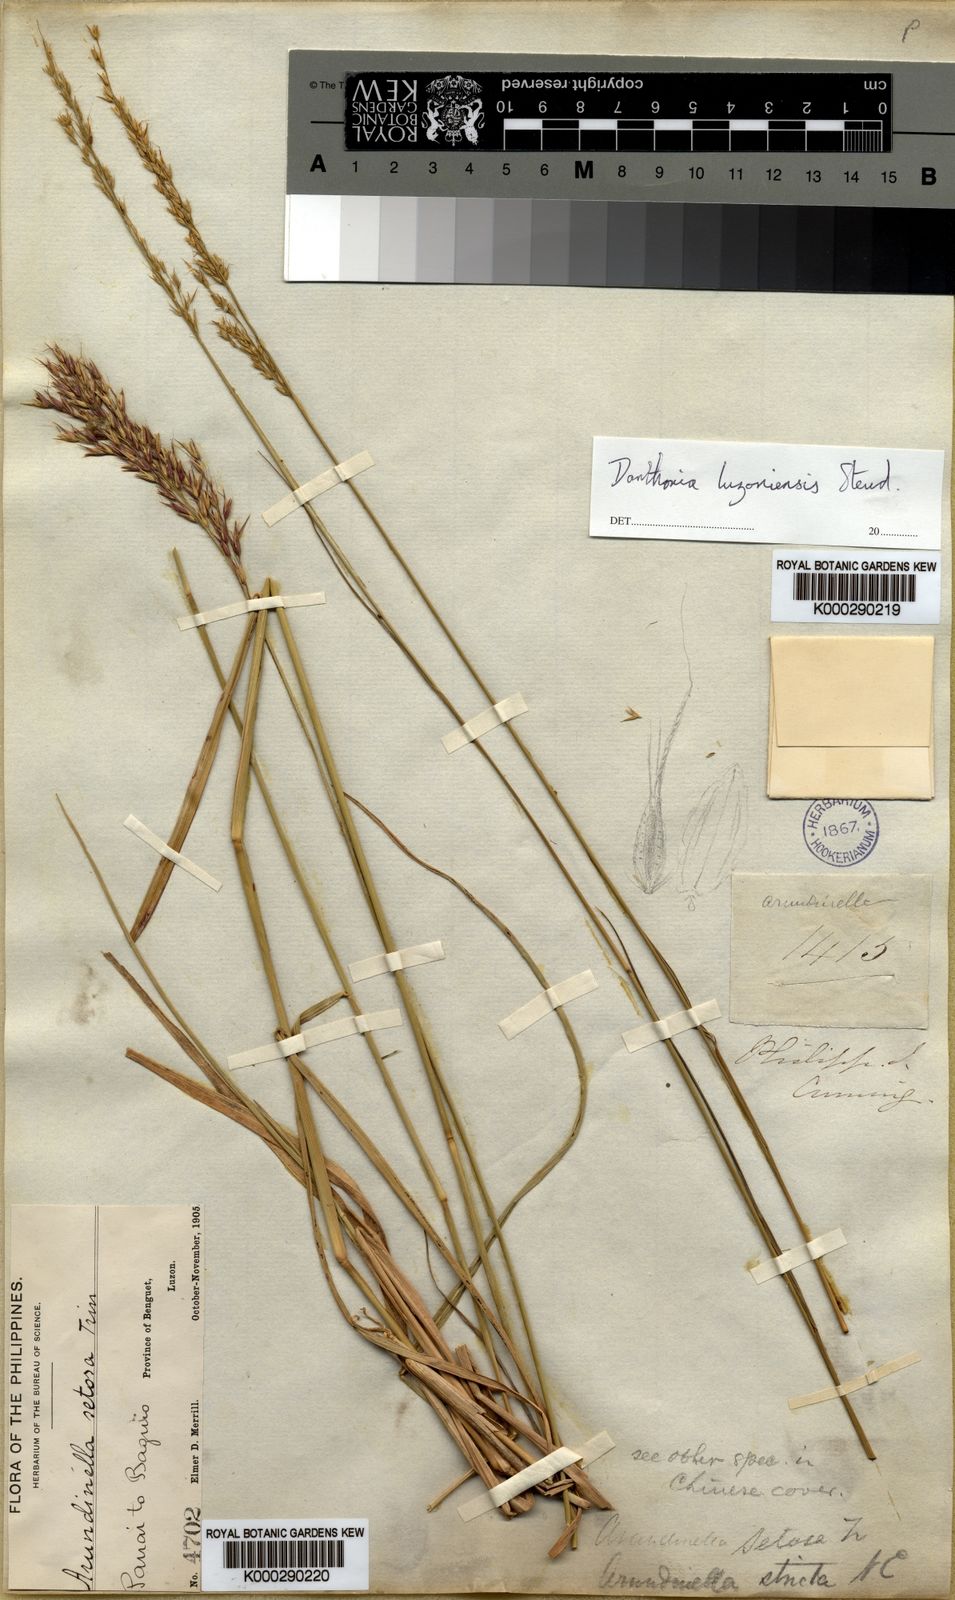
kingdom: Plantae
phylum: Tracheophyta
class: Liliopsida
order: Poales
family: Poaceae
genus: Arundinella
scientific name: Arundinella setosa
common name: Reed grass
